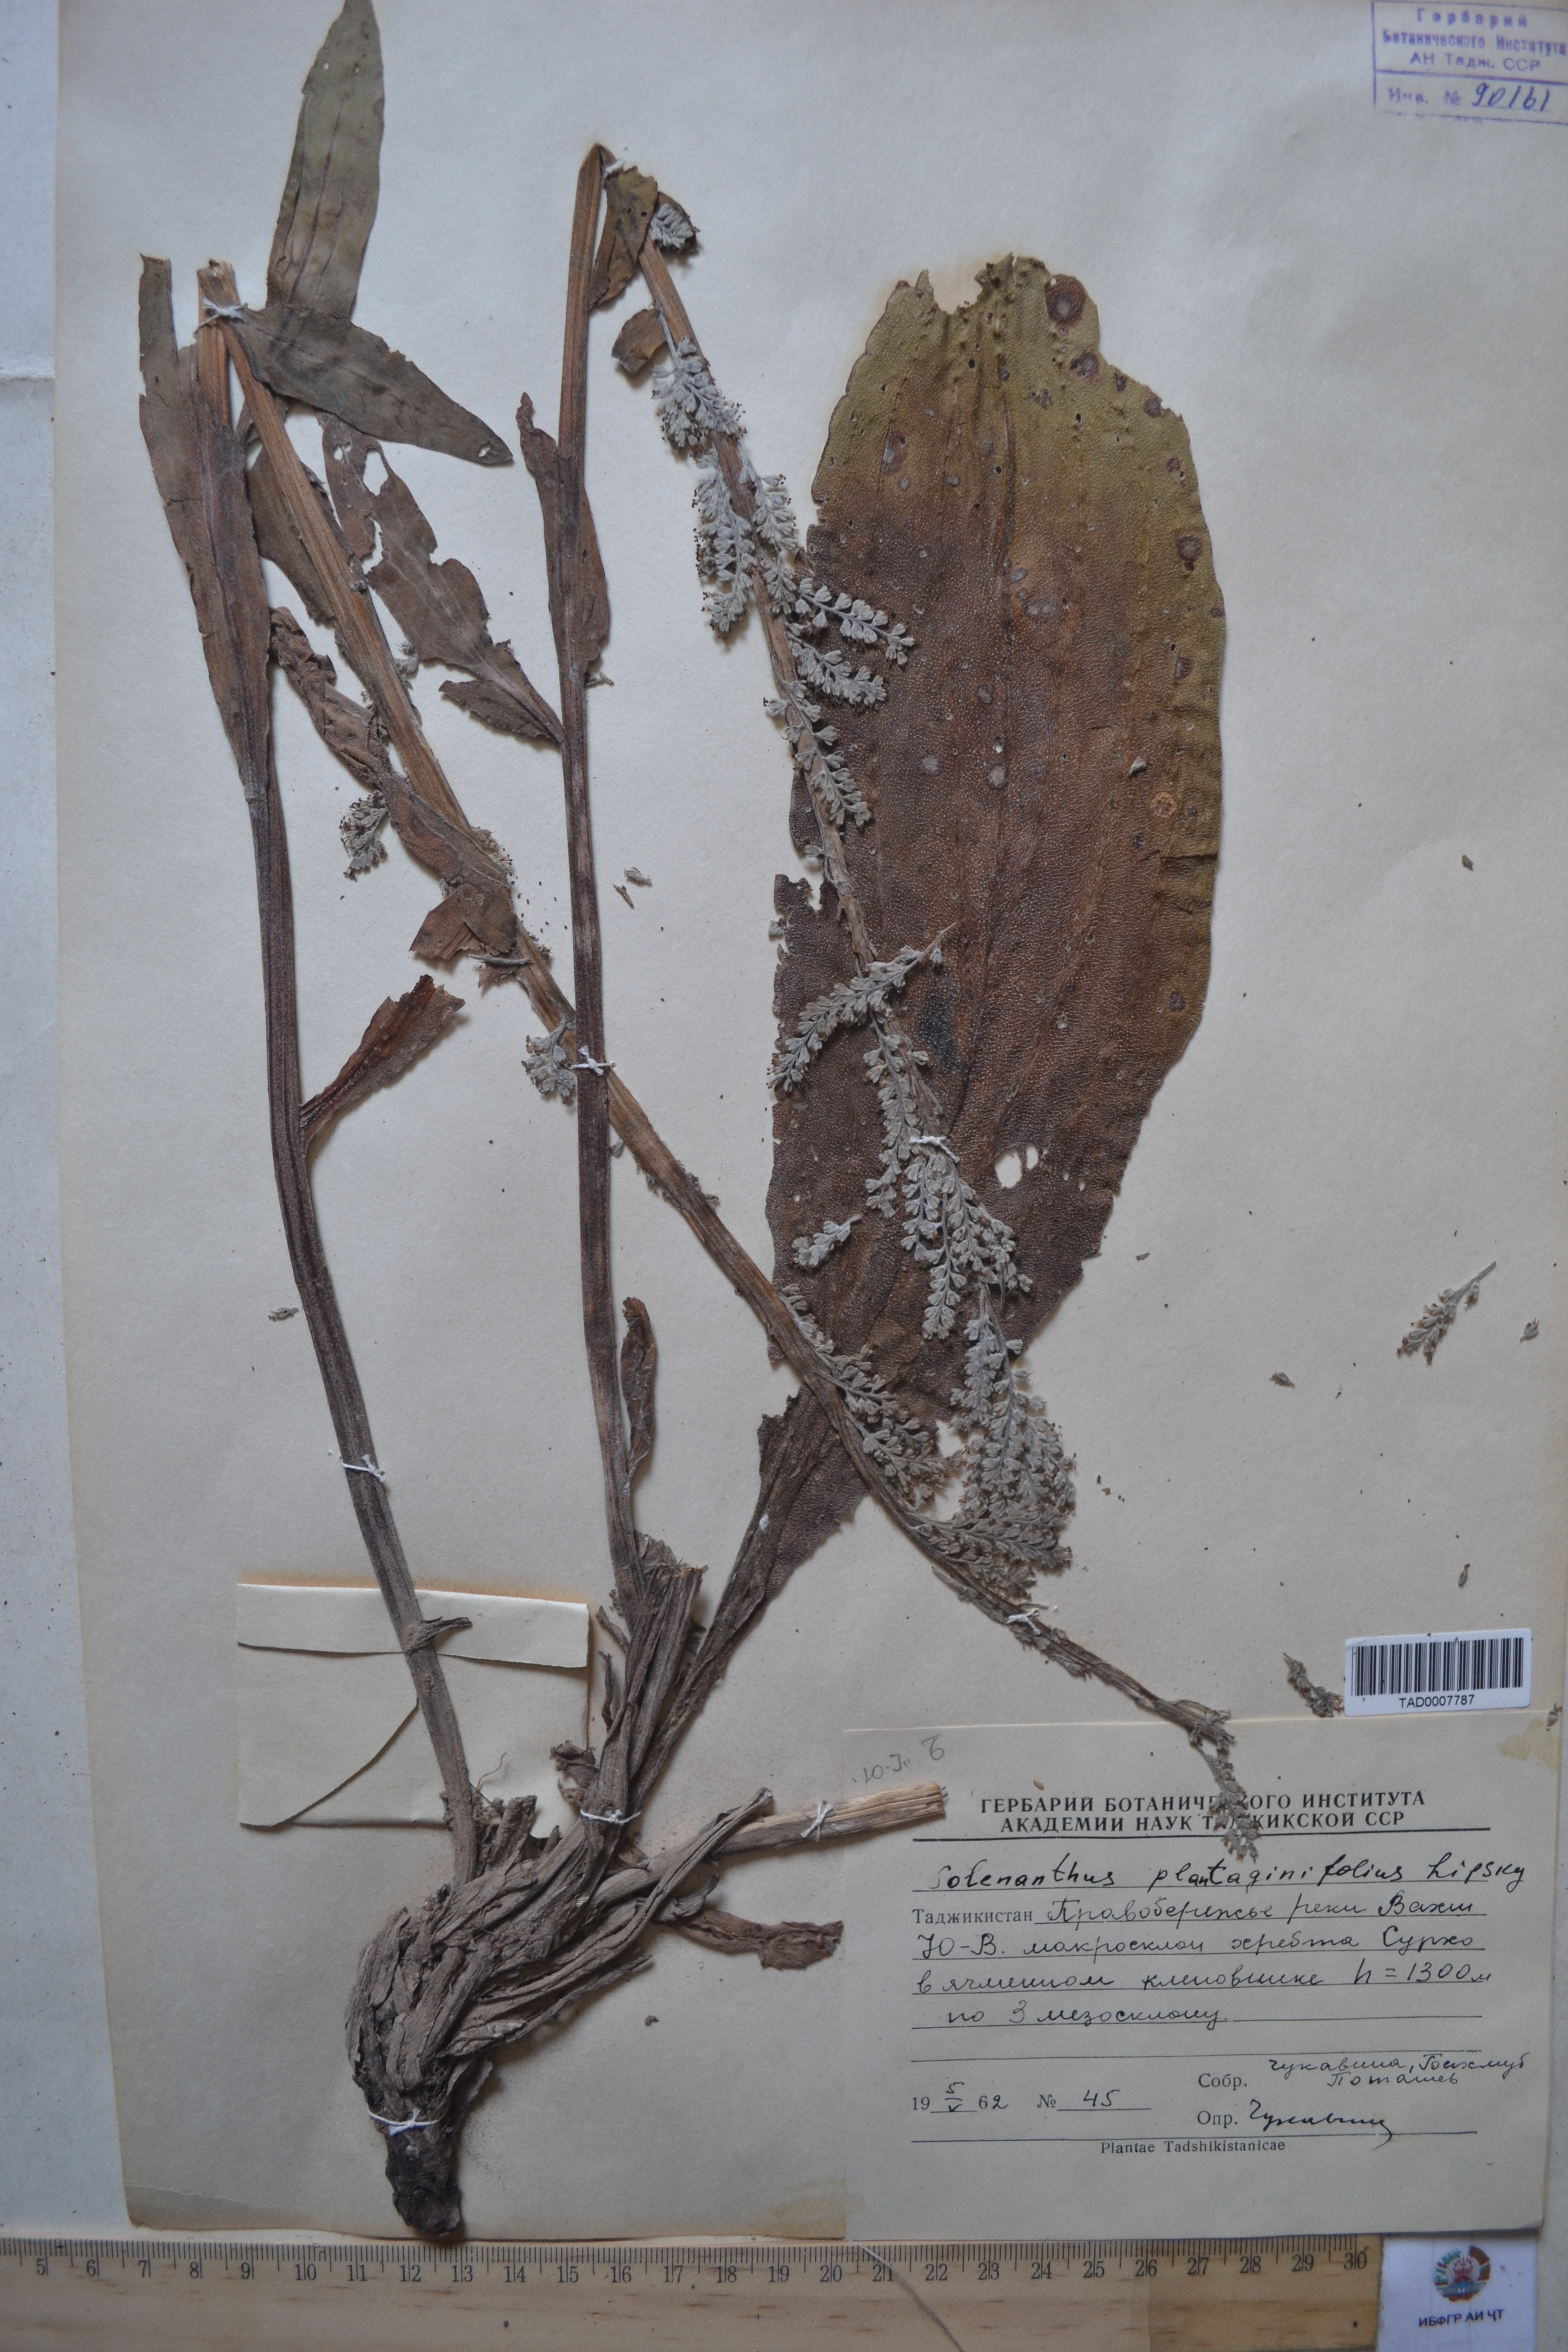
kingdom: Plantae
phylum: Tracheophyta
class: Magnoliopsida
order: Boraginales
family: Boraginaceae
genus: Solenanthus
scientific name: Solenanthus plantaginifolius
